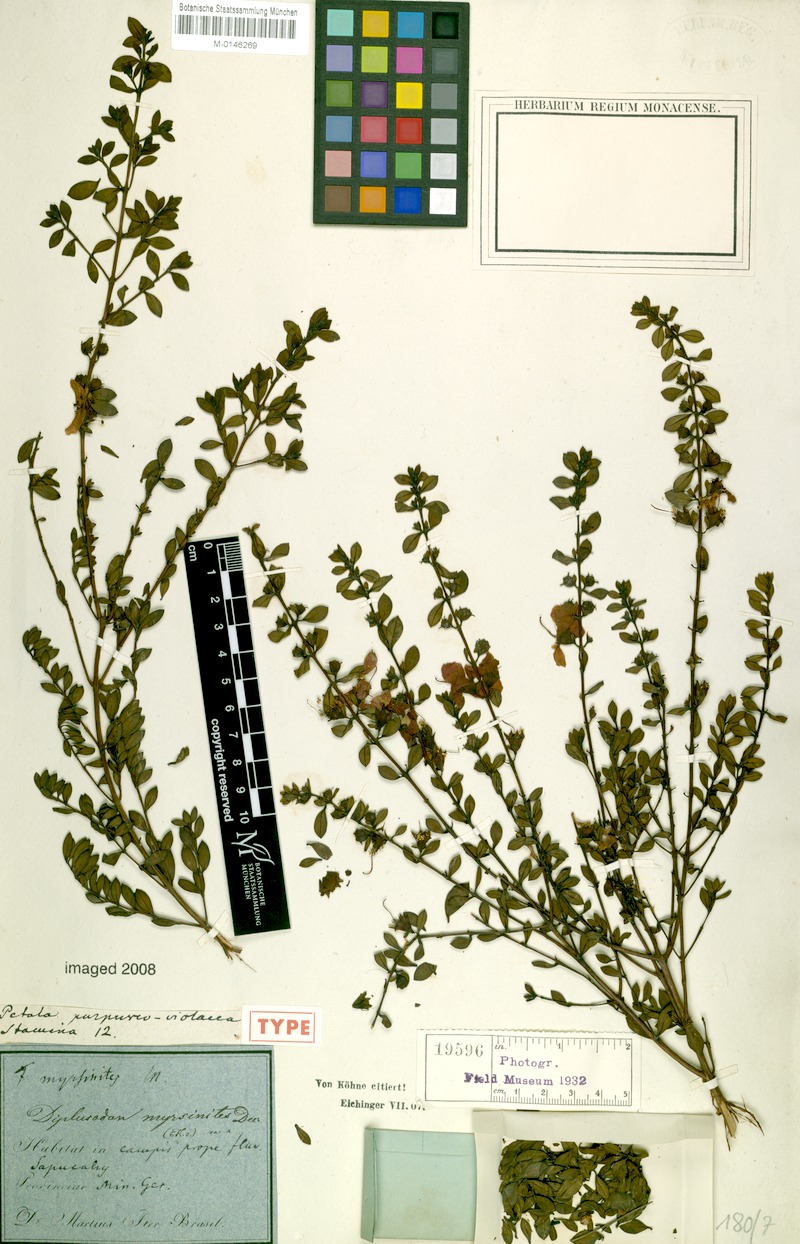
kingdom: Plantae
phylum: Tracheophyta
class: Magnoliopsida
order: Myrtales
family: Lythraceae
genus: Diplusodon
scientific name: Diplusodon myrsinites
